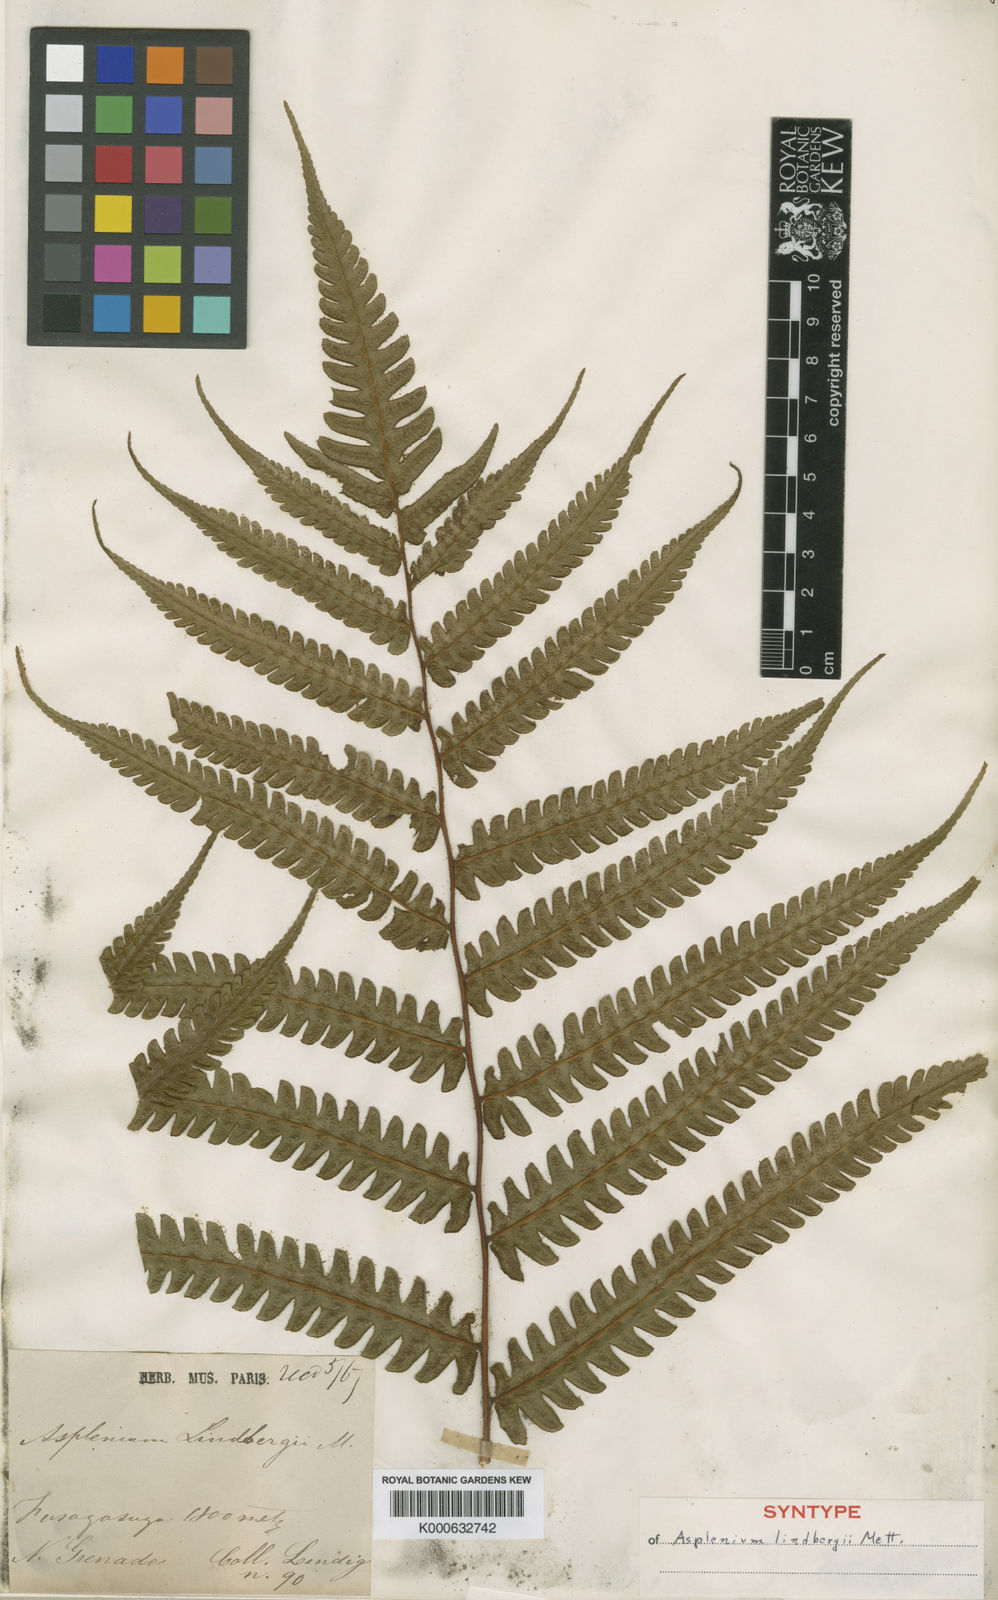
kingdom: Plantae
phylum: Tracheophyta
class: Polypodiopsida
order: Polypodiales
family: Athyriaceae
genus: Diplazium
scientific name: Diplazium lindbergii
